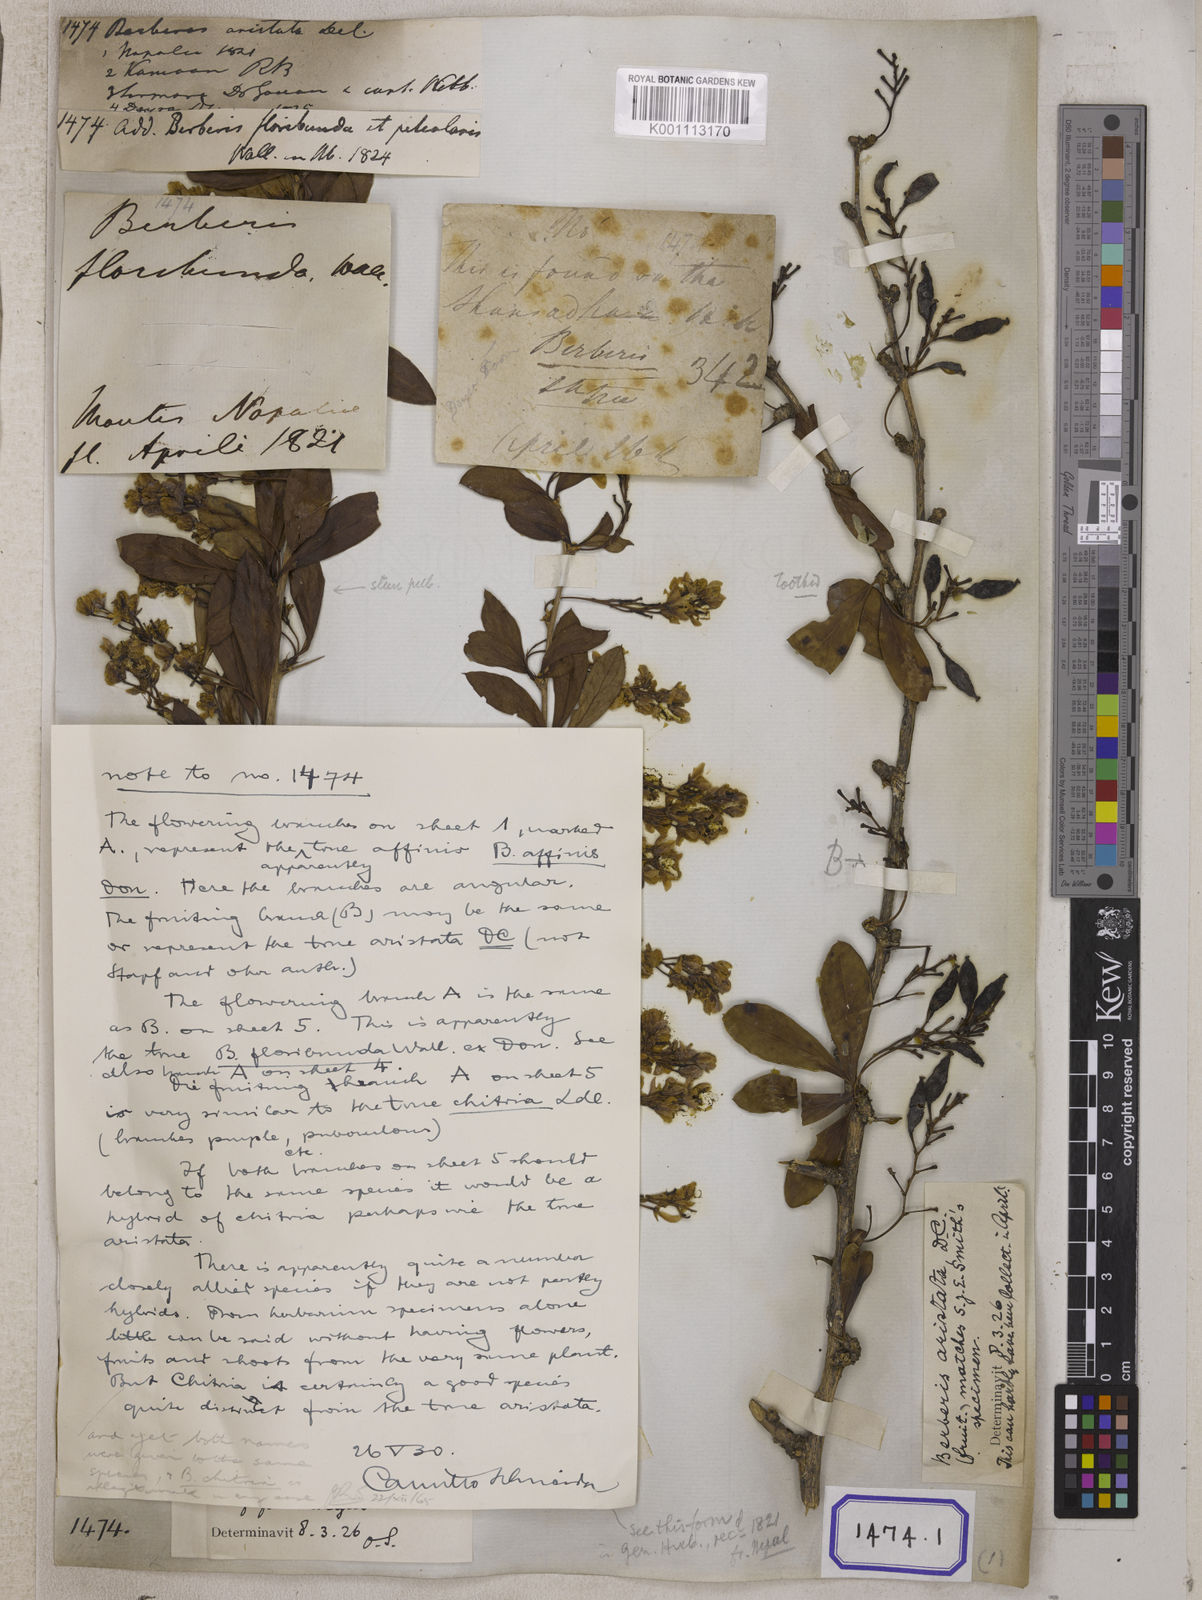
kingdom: Plantae
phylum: Tracheophyta
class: Magnoliopsida
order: Ranunculales
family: Berberidaceae
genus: Berberis
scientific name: Berberis aristata
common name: Indian barberry
